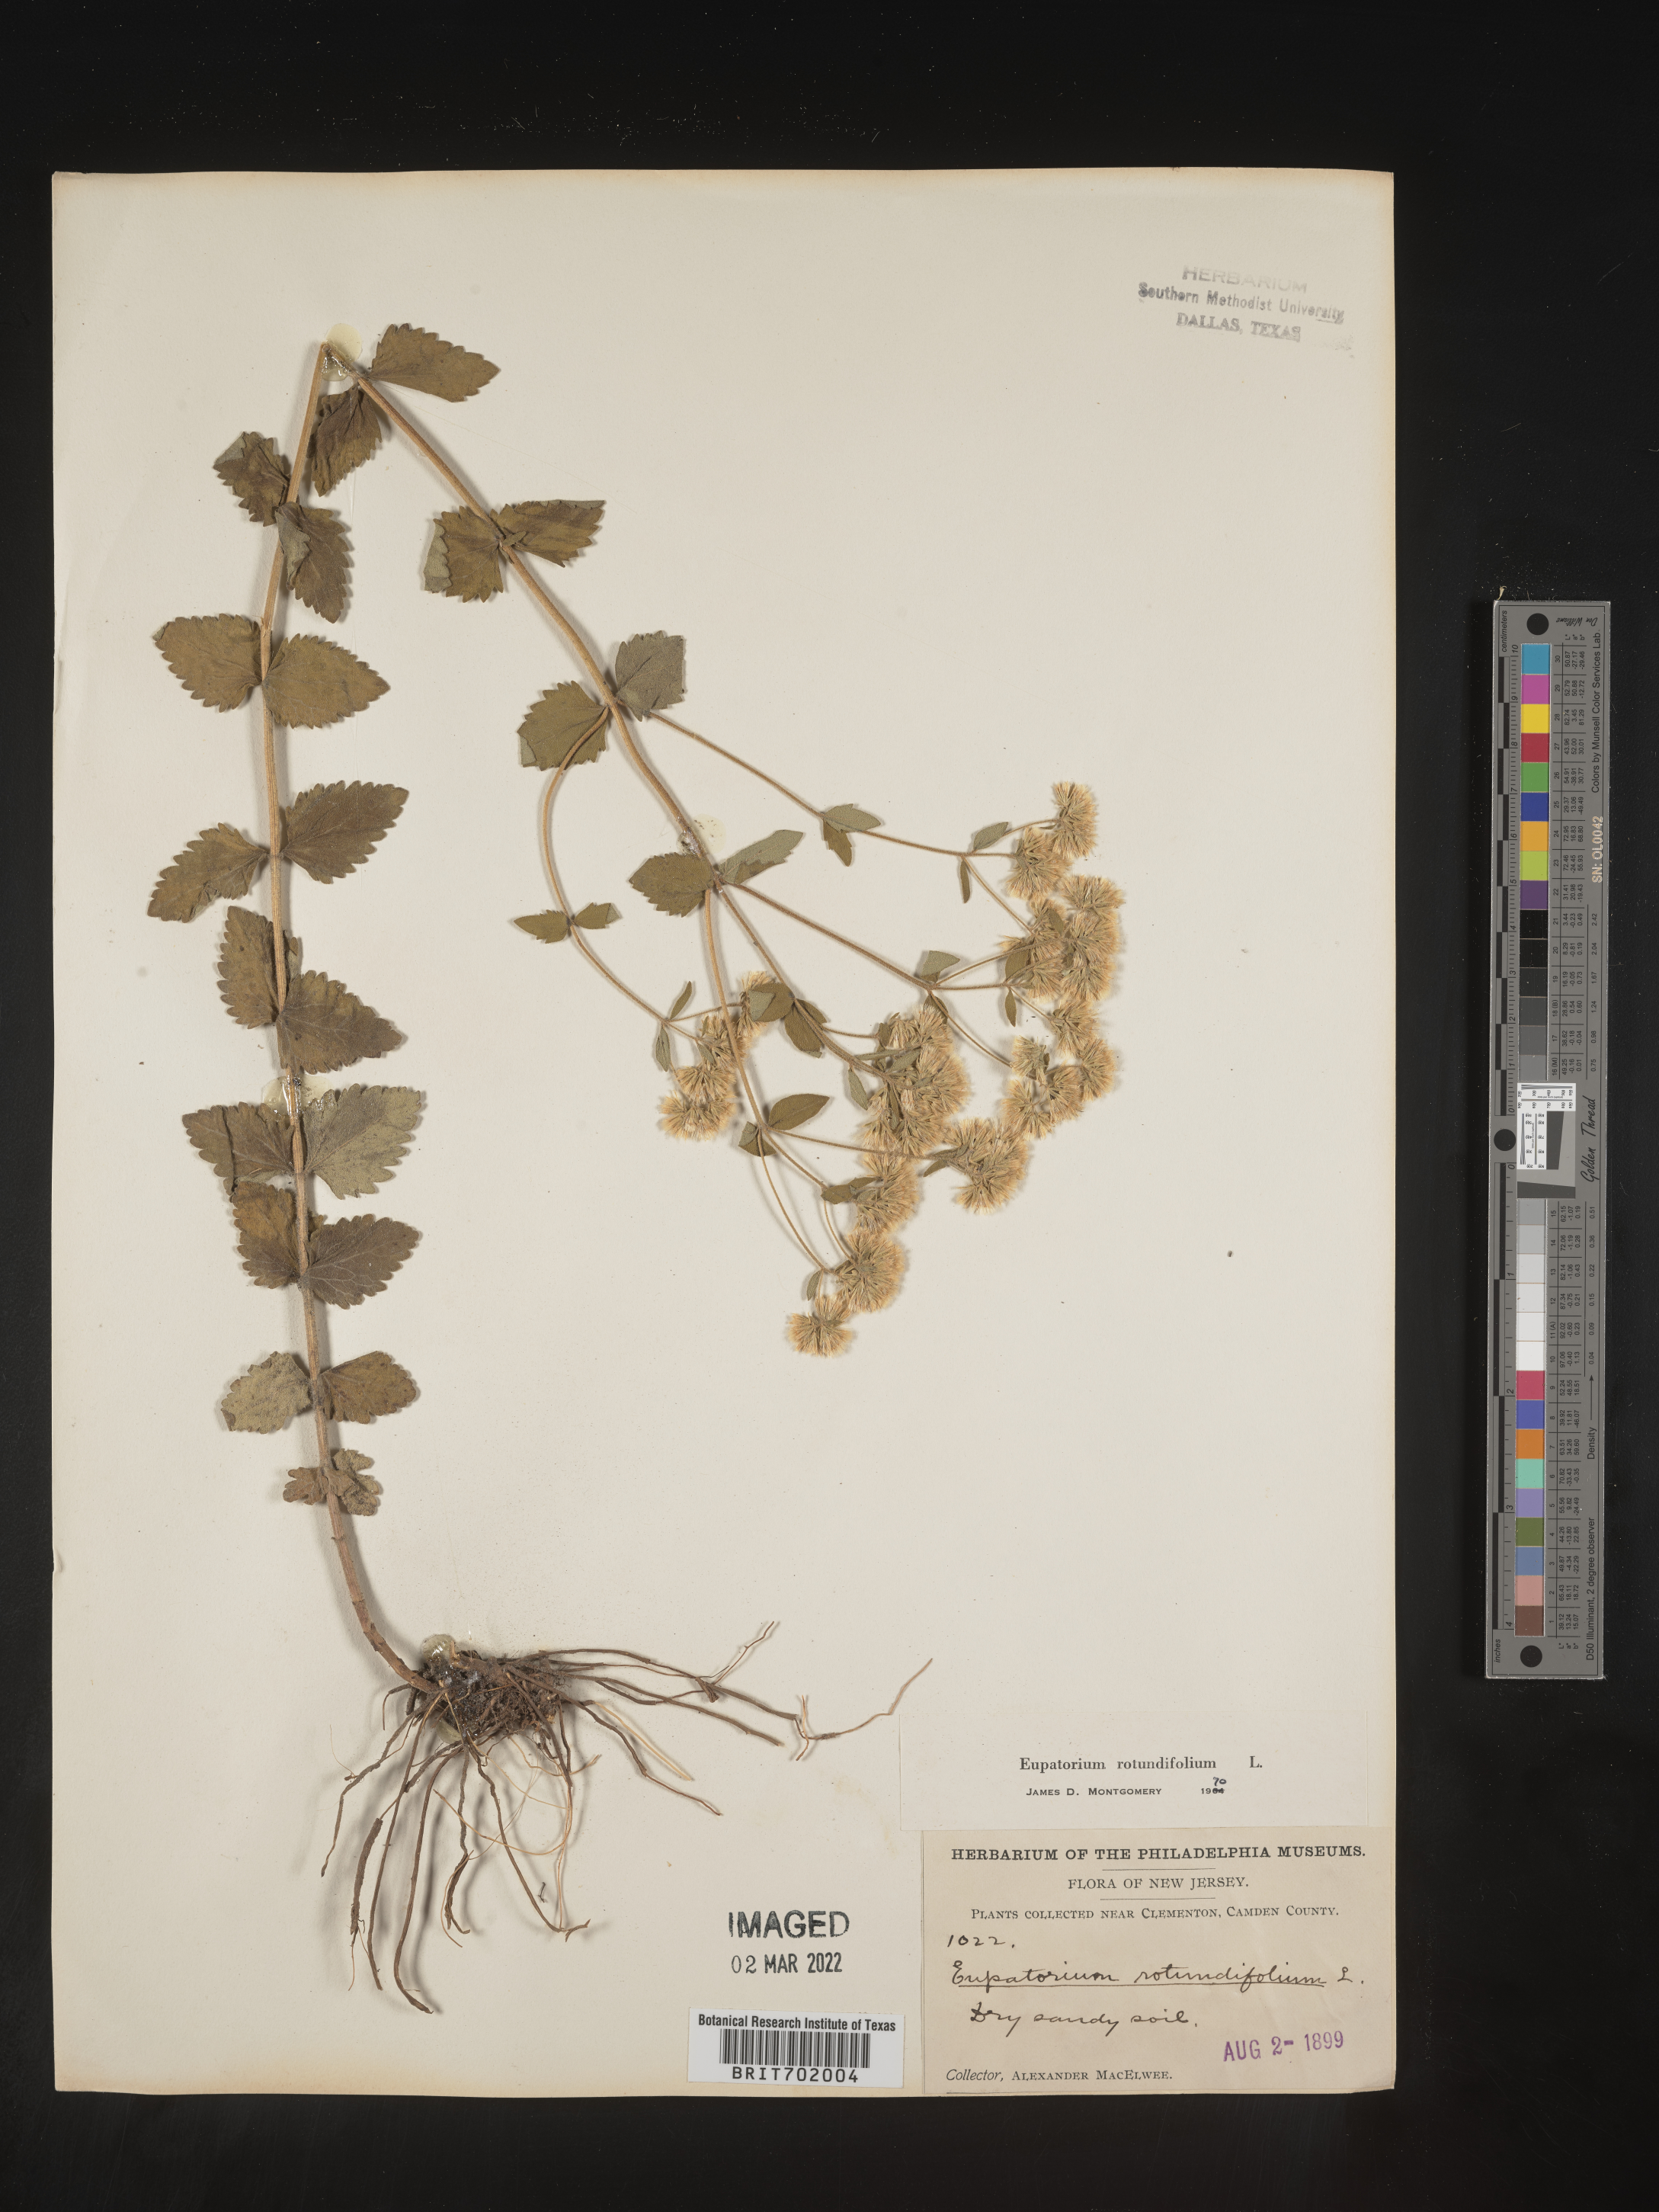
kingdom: Plantae
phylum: Tracheophyta
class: Magnoliopsida
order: Asterales
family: Asteraceae
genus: Eupatorium
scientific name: Eupatorium rotundifolium
